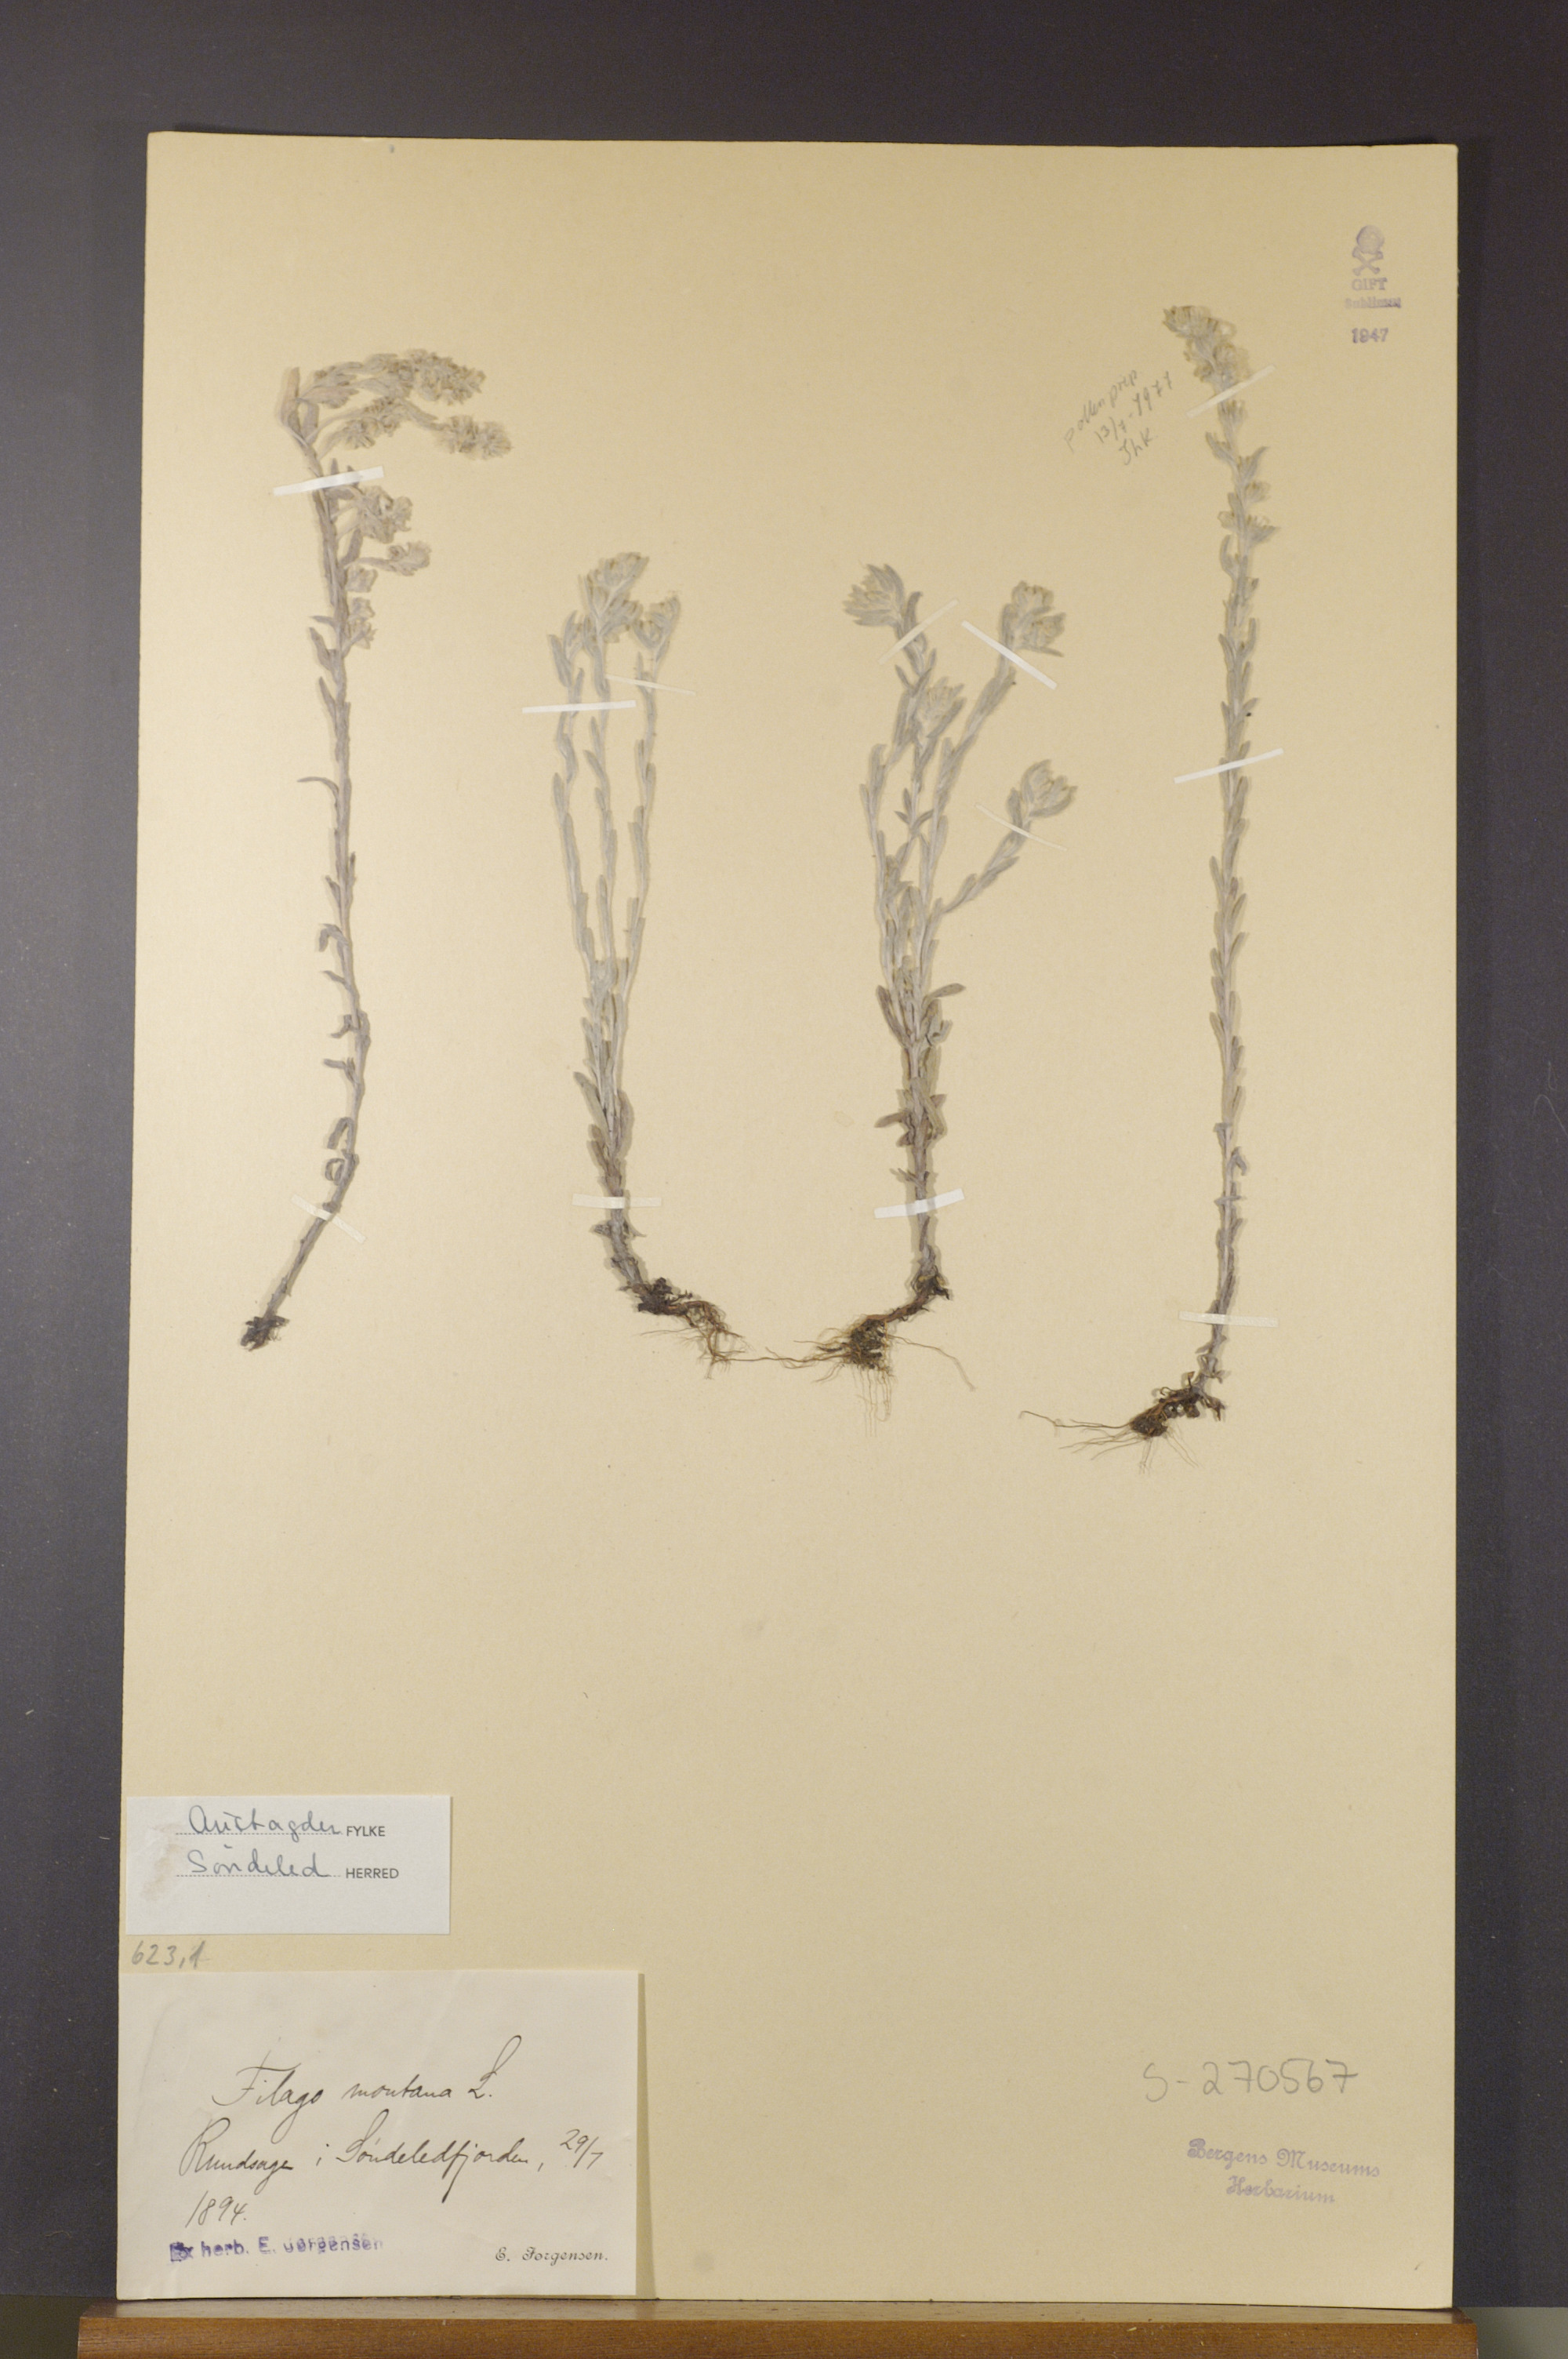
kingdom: Plantae
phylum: Tracheophyta
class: Magnoliopsida
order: Asterales
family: Asteraceae
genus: Filago
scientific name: Filago arvensis
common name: Field cudweed
